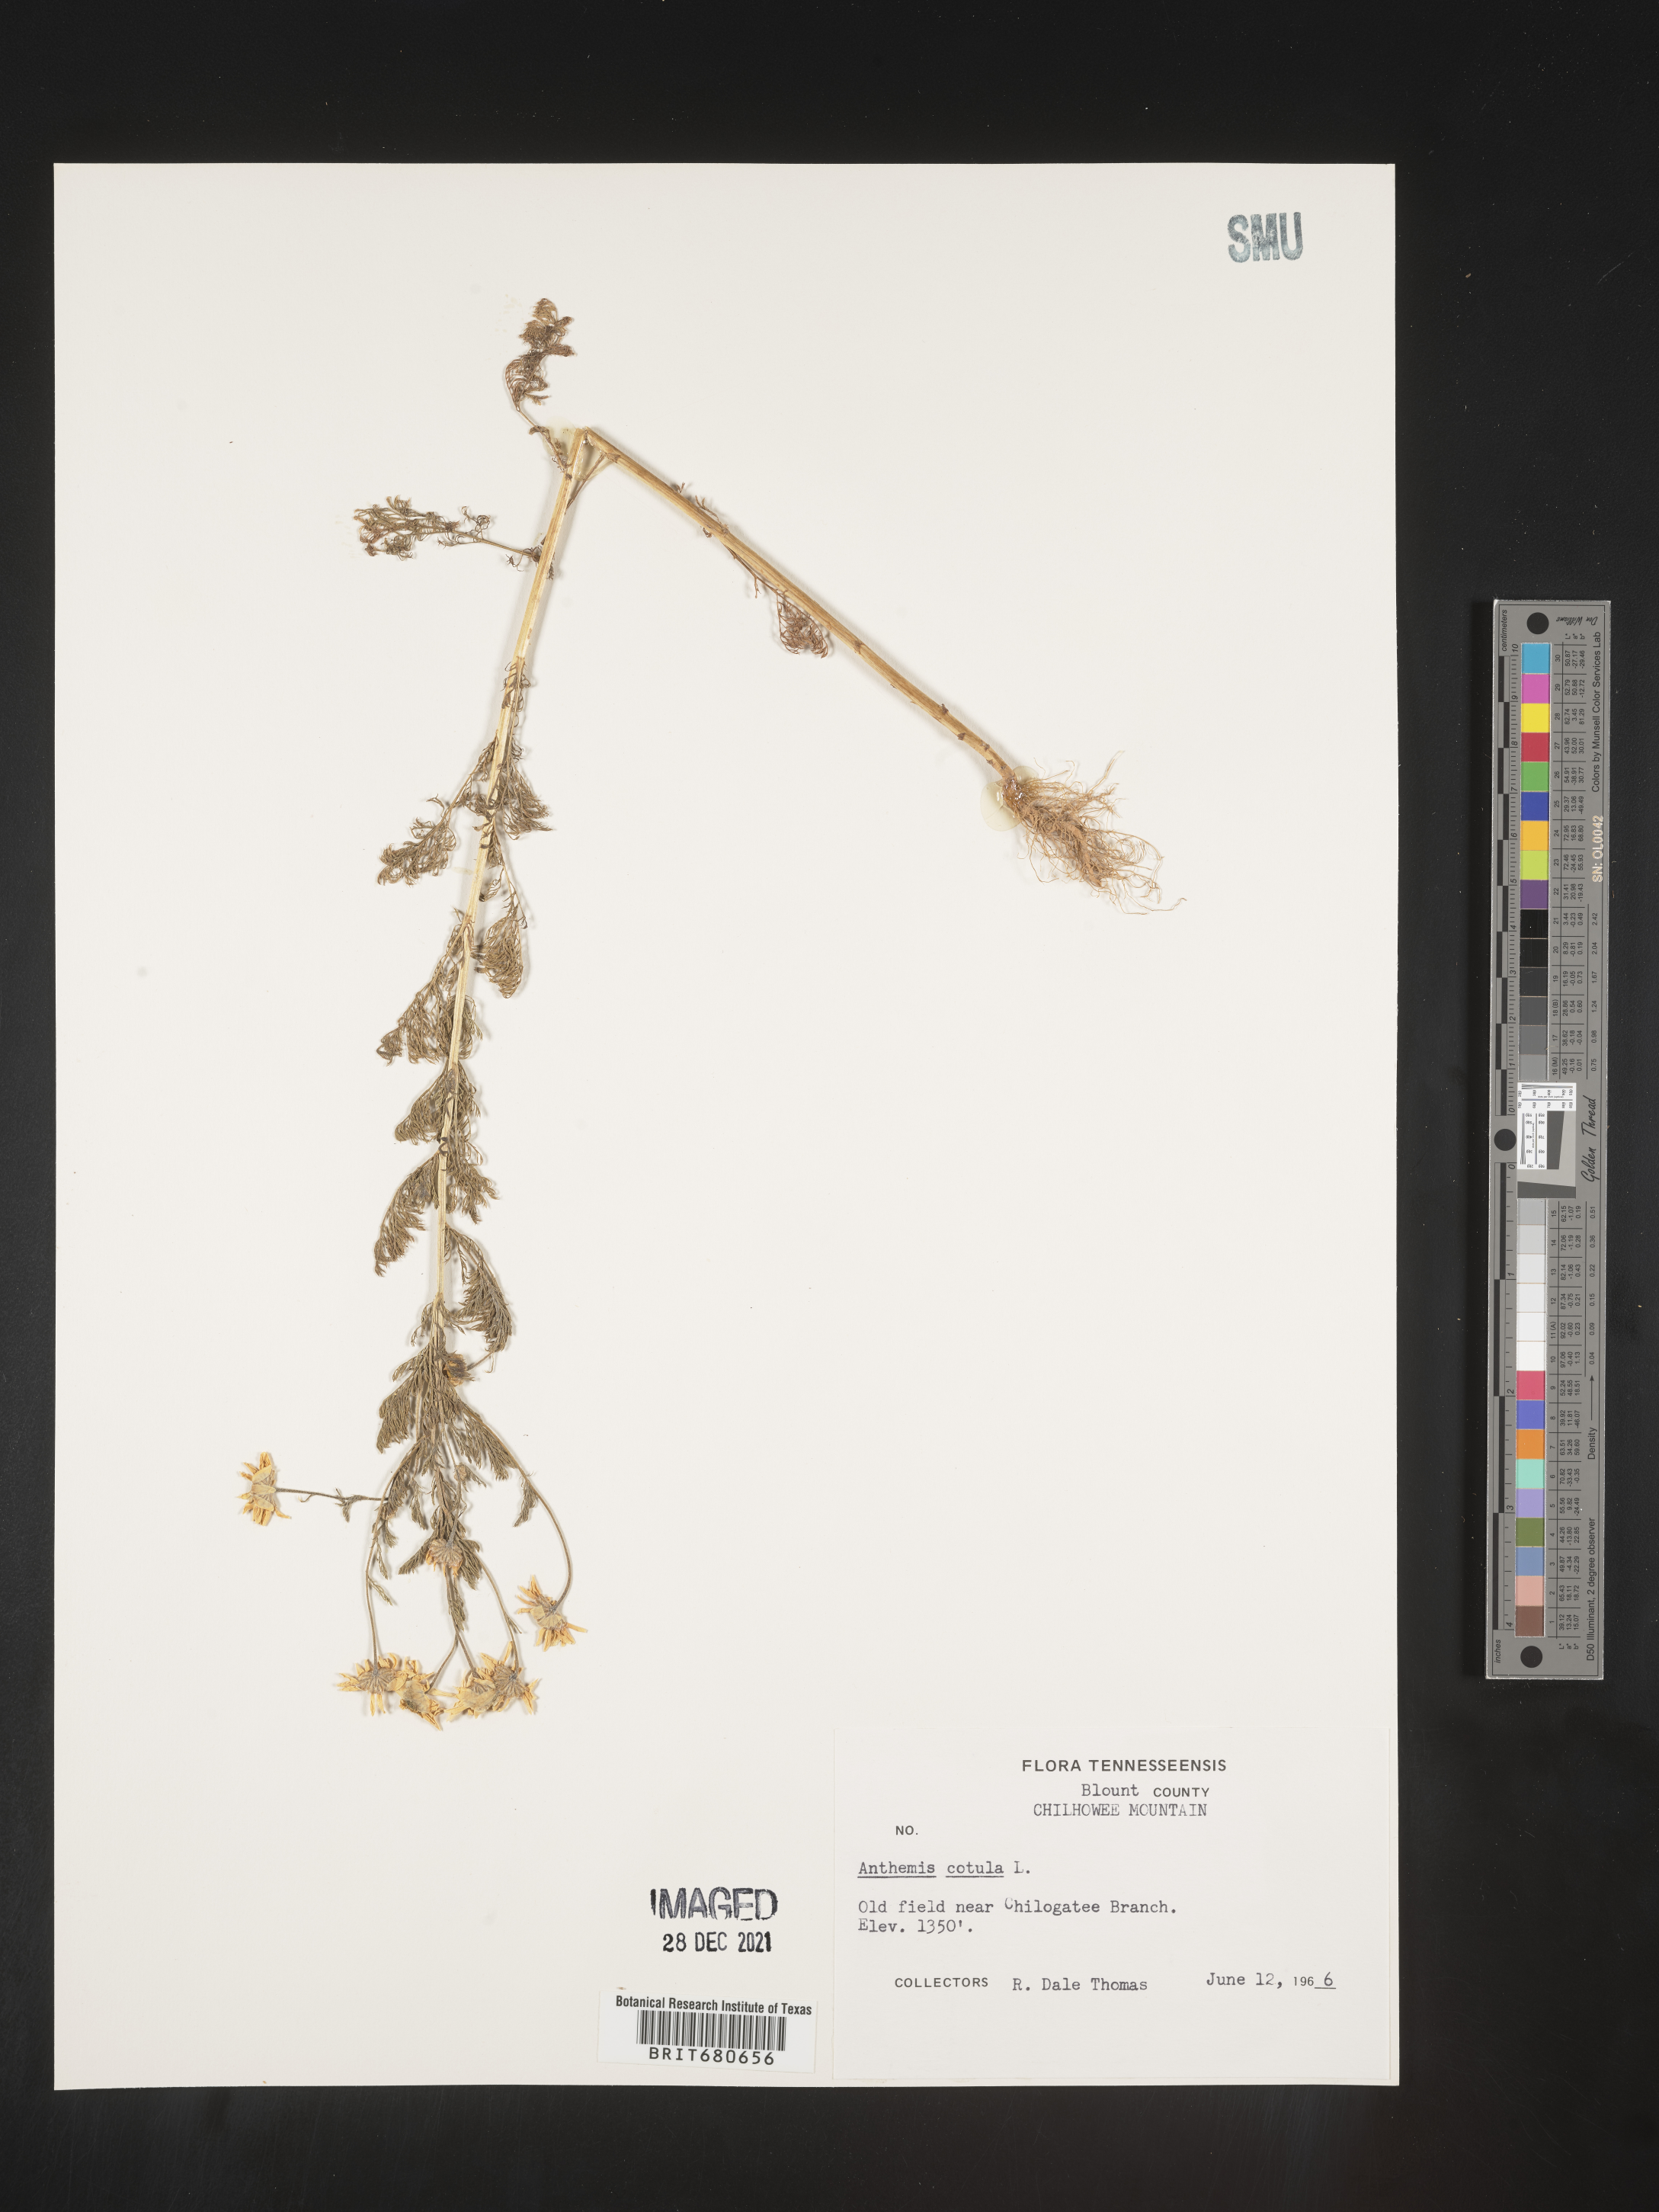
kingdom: Plantae
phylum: Tracheophyta
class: Magnoliopsida
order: Asterales
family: Asteraceae
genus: Anthemis
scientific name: Anthemis cotula
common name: Stinking chamomile
